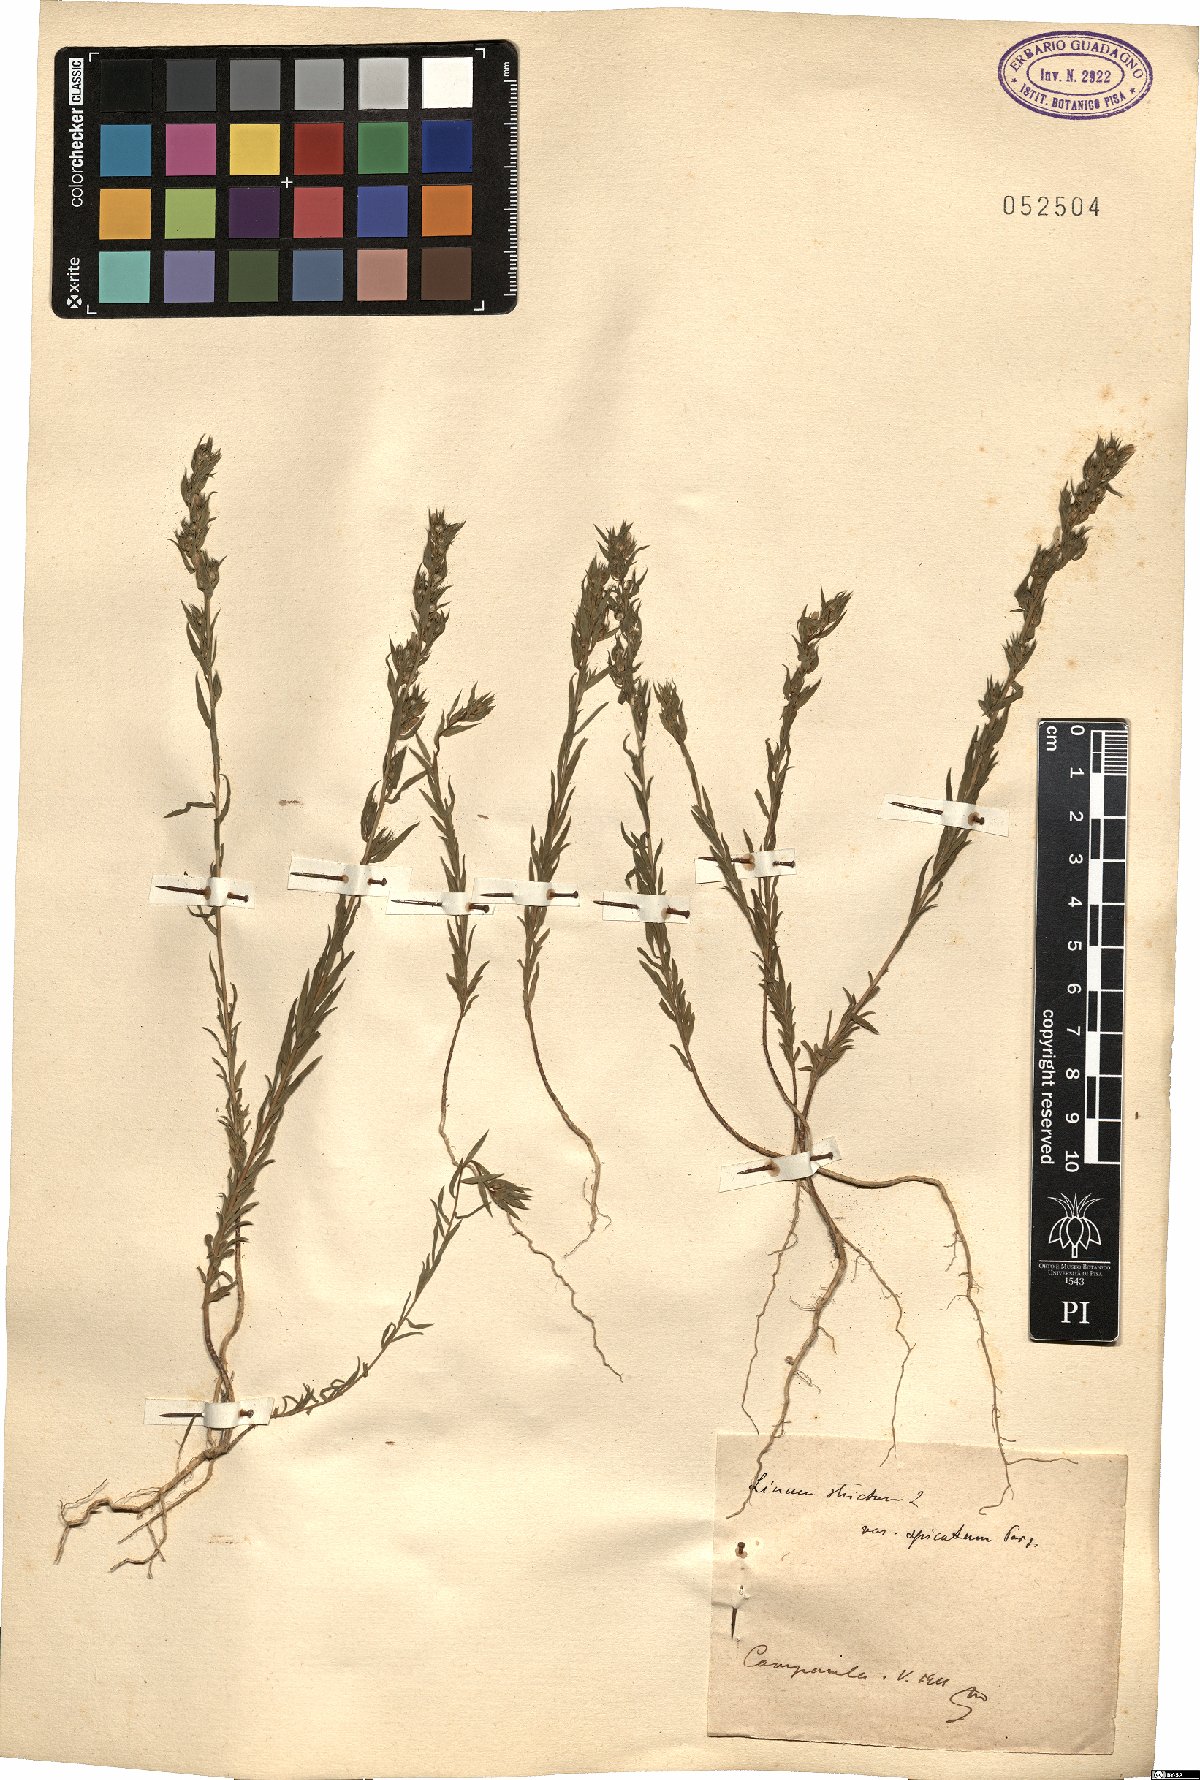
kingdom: Plantae
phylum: Tracheophyta
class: Magnoliopsida
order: Malpighiales
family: Linaceae
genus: Linum
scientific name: Linum strictum
